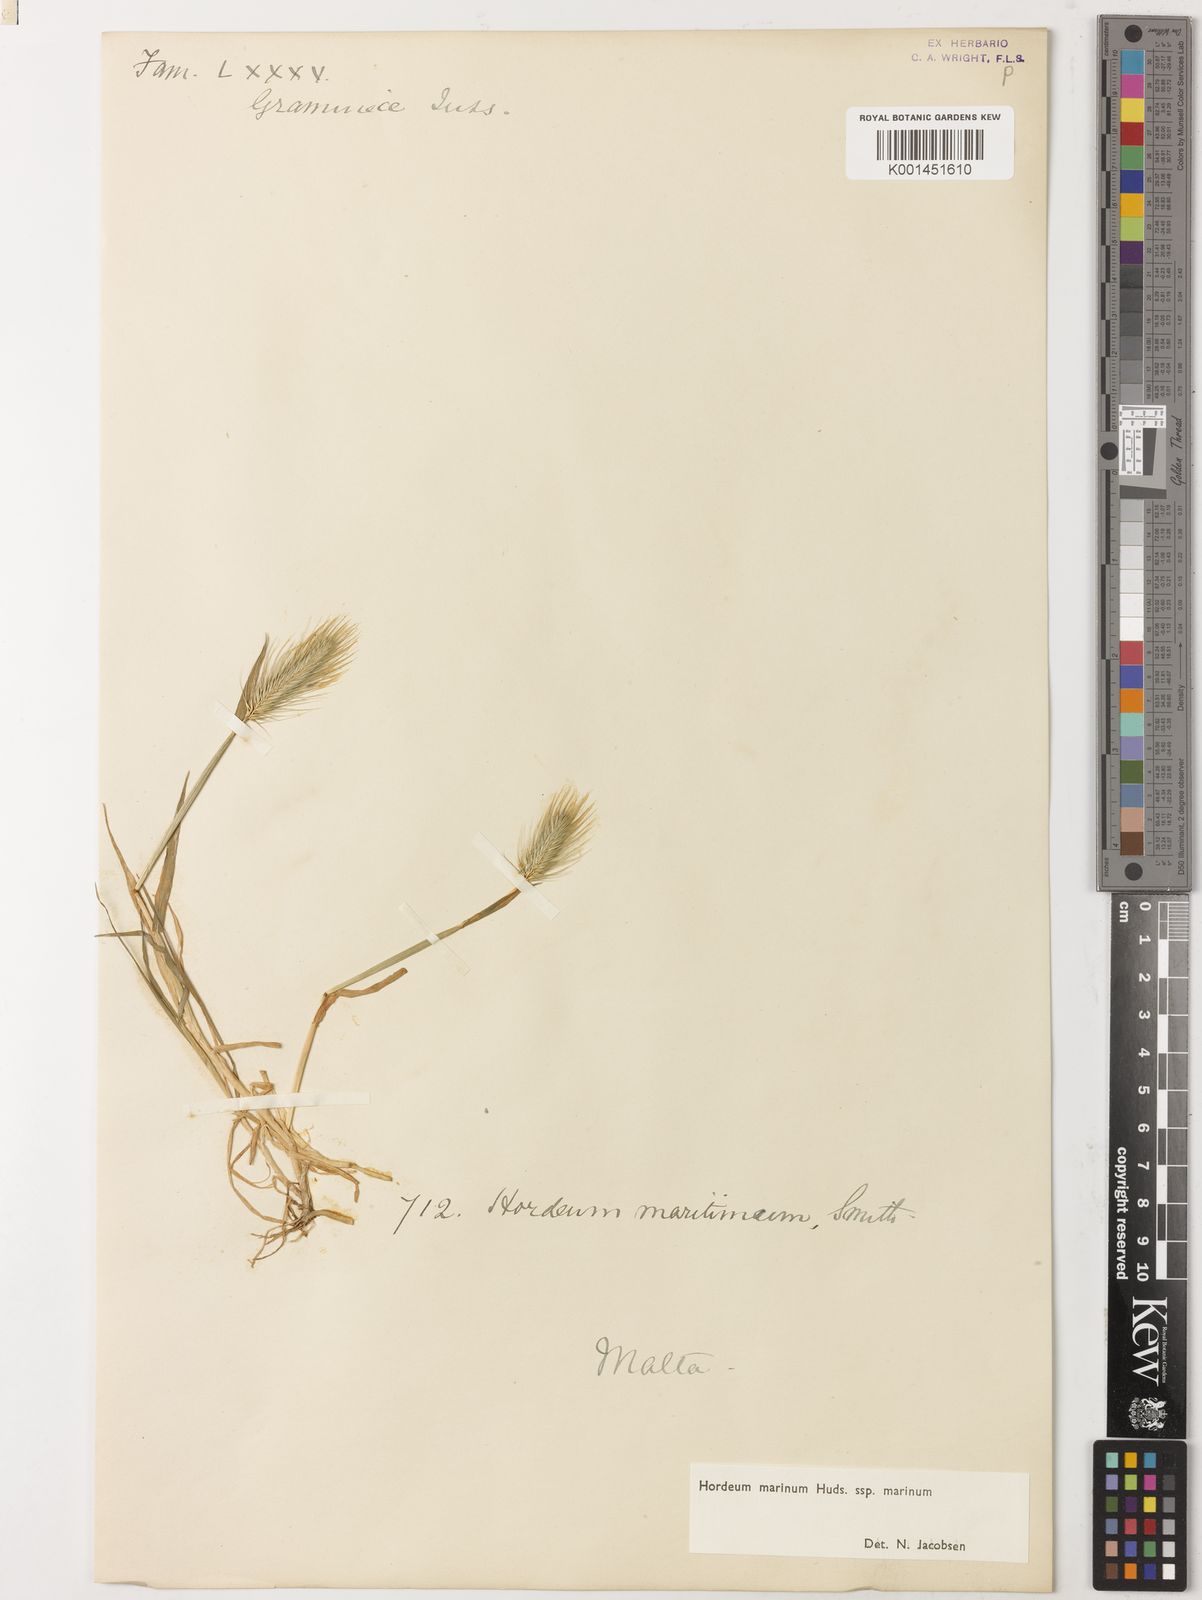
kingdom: Plantae
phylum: Tracheophyta
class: Liliopsida
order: Poales
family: Poaceae
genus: Hordeum
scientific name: Hordeum marinum
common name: Sea barley
